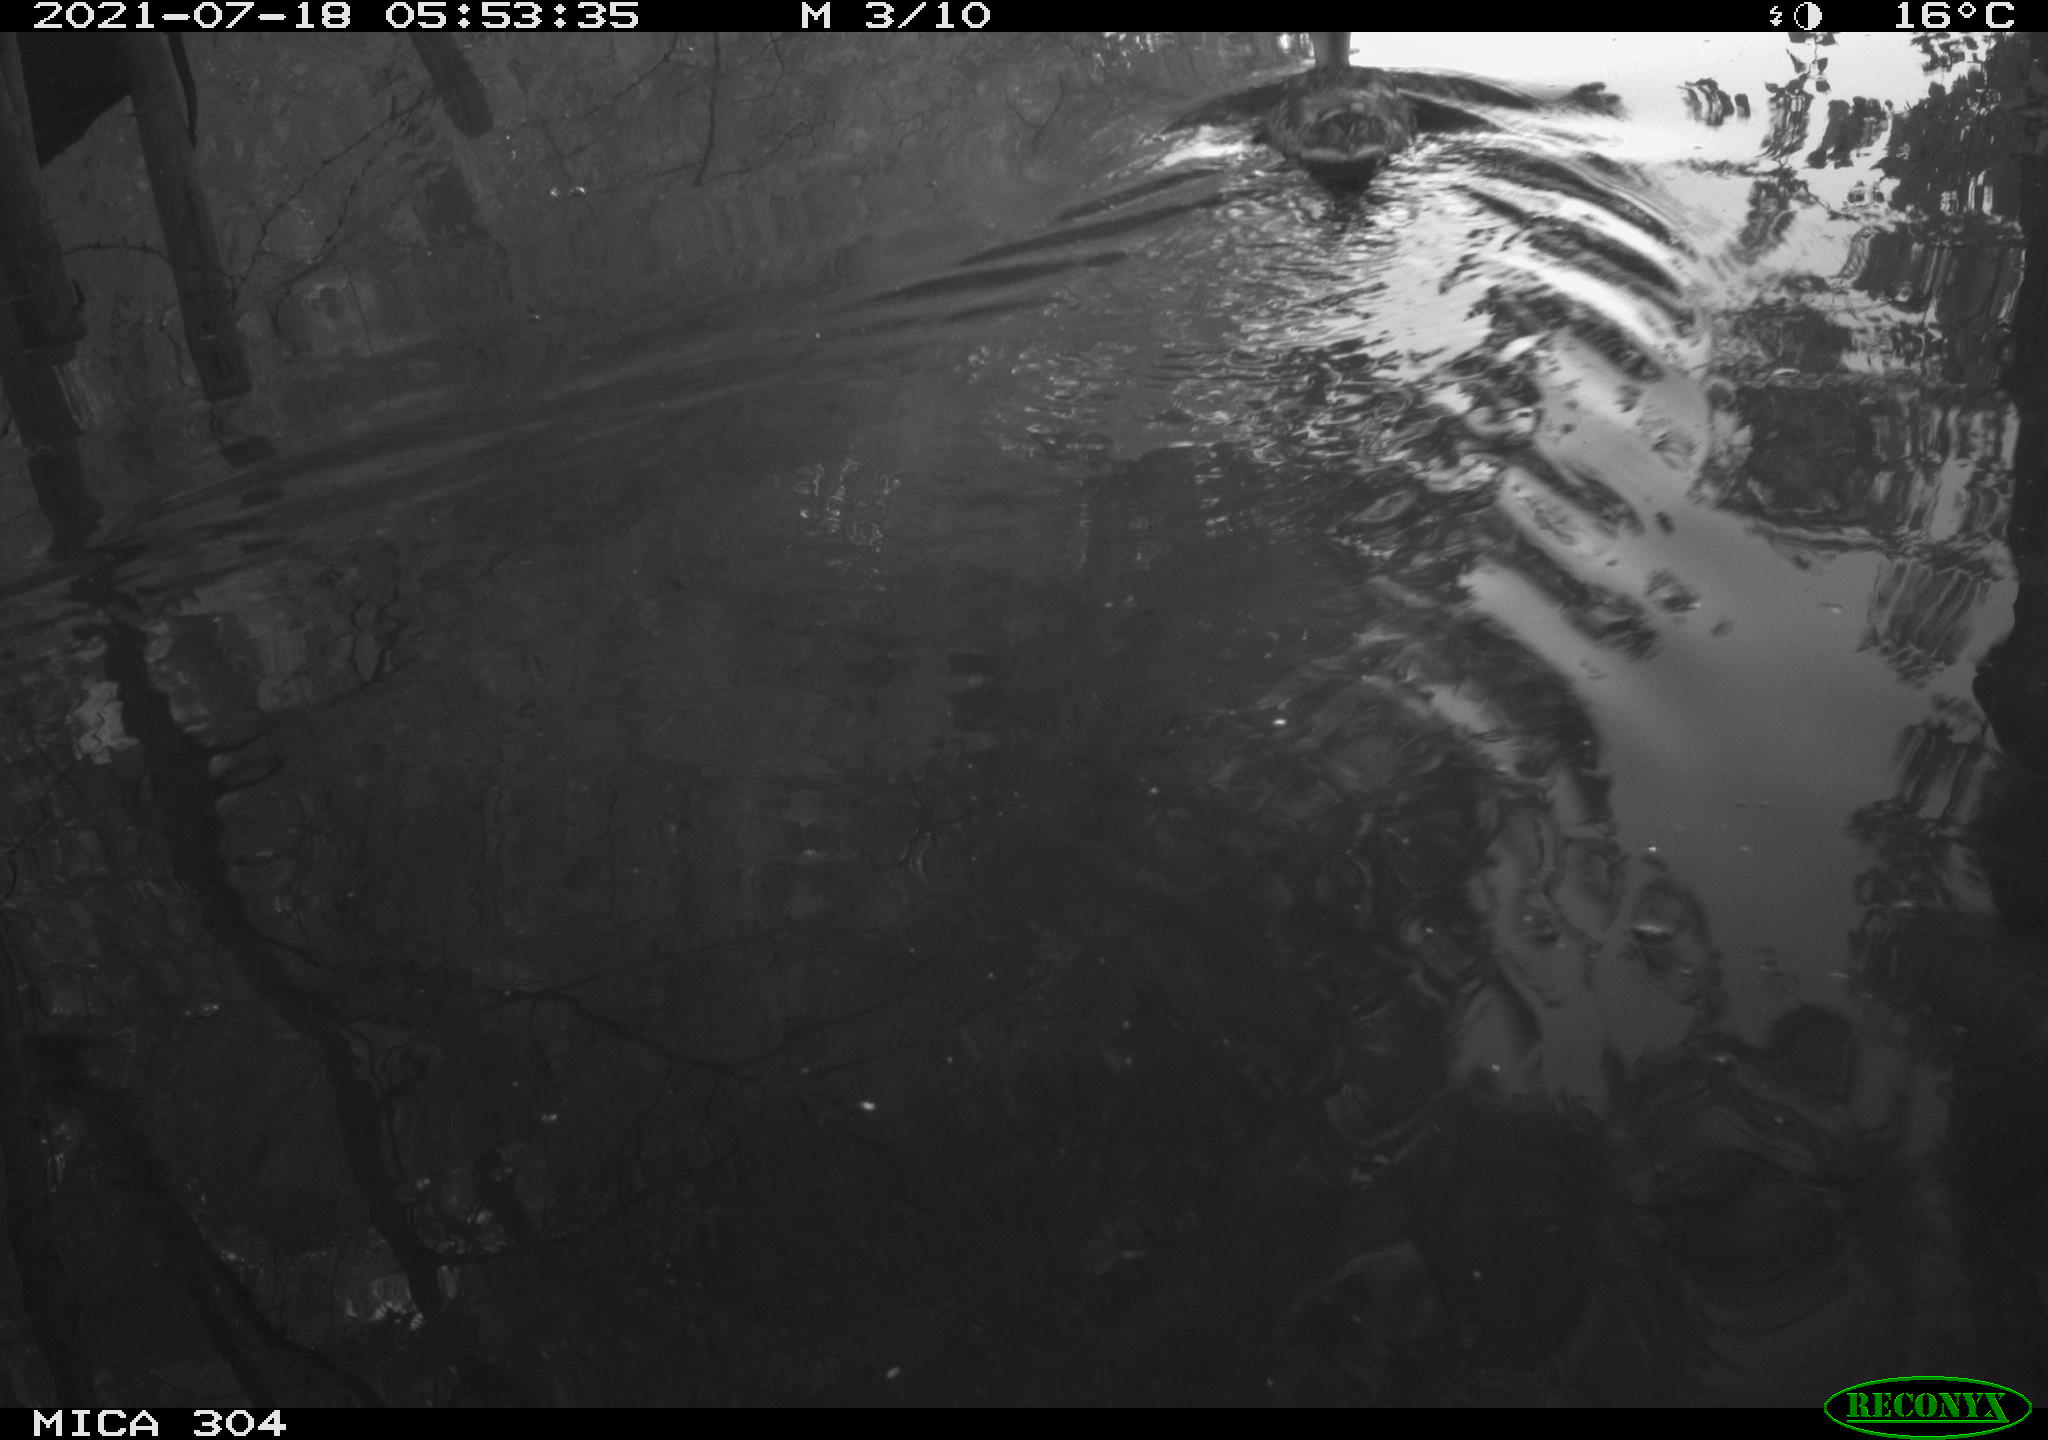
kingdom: Animalia
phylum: Chordata
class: Aves
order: Anseriformes
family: Anatidae
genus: Anas
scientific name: Anas platyrhynchos
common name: Mallard
